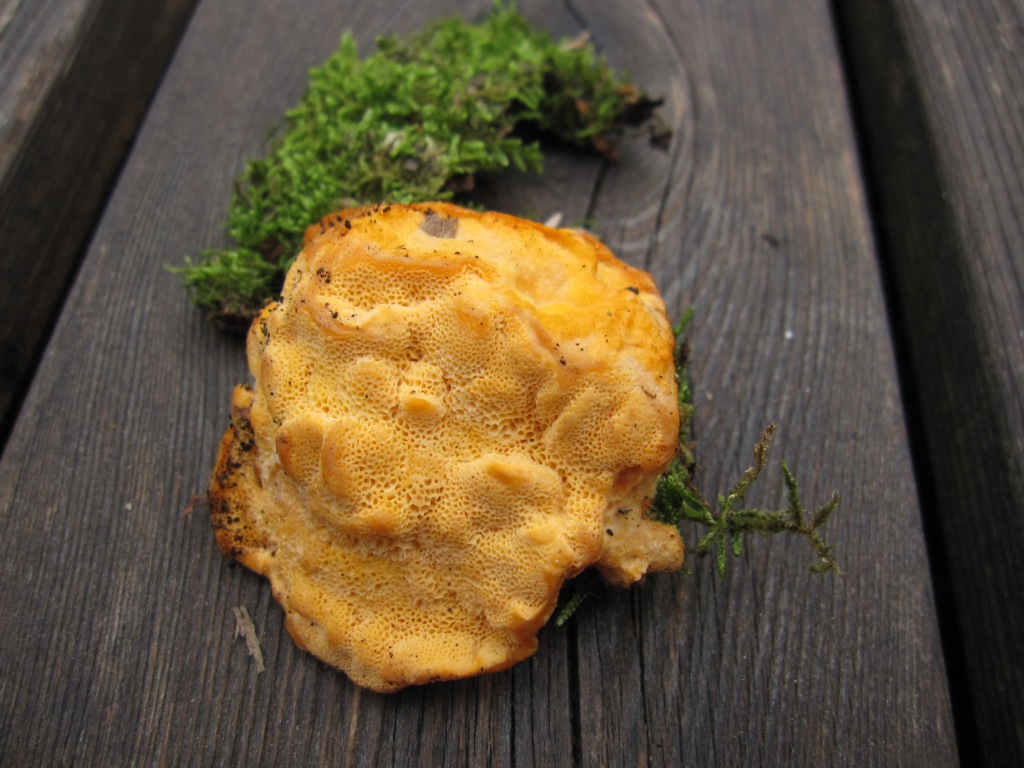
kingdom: Fungi
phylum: Basidiomycota
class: Agaricomycetes
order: Polyporales
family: Pycnoporellaceae
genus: Pycnoporellus
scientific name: Pycnoporellus fulgens
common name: flammeporesvamp
